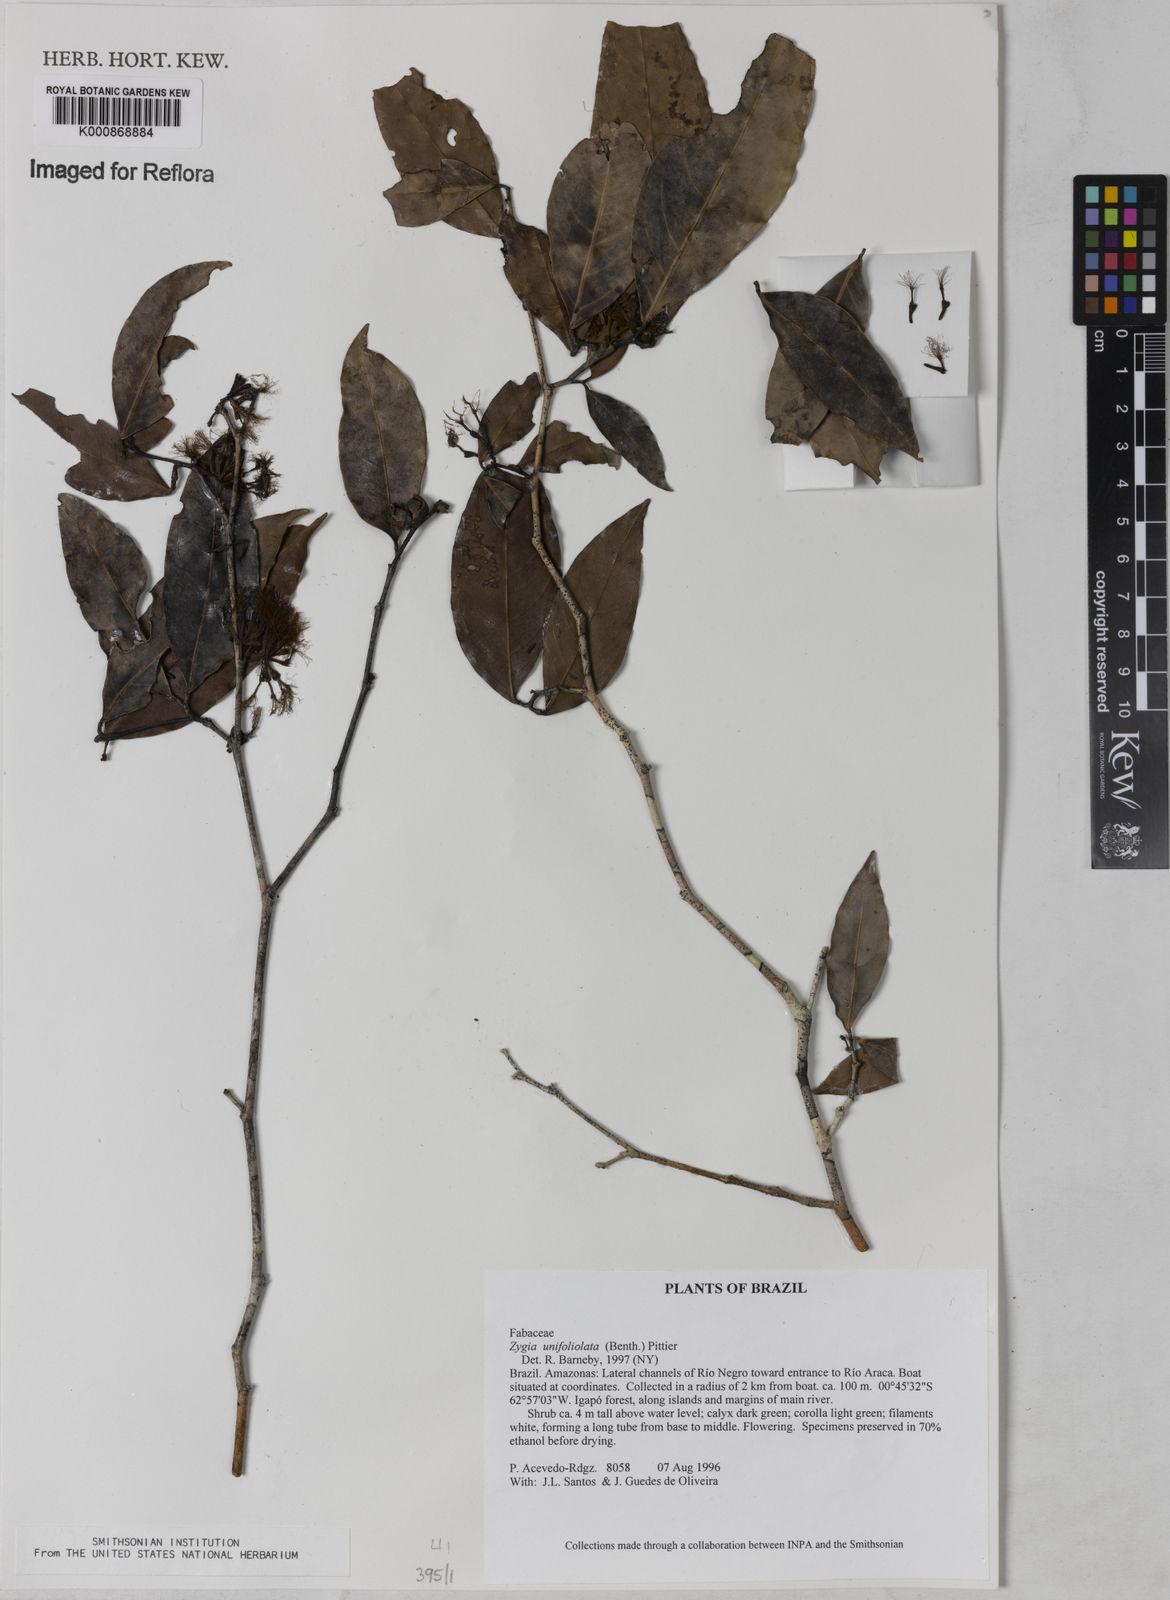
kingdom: Plantae
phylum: Tracheophyta
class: Magnoliopsida
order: Fabales
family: Fabaceae
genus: Zygia
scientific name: Zygia unifoliolata
